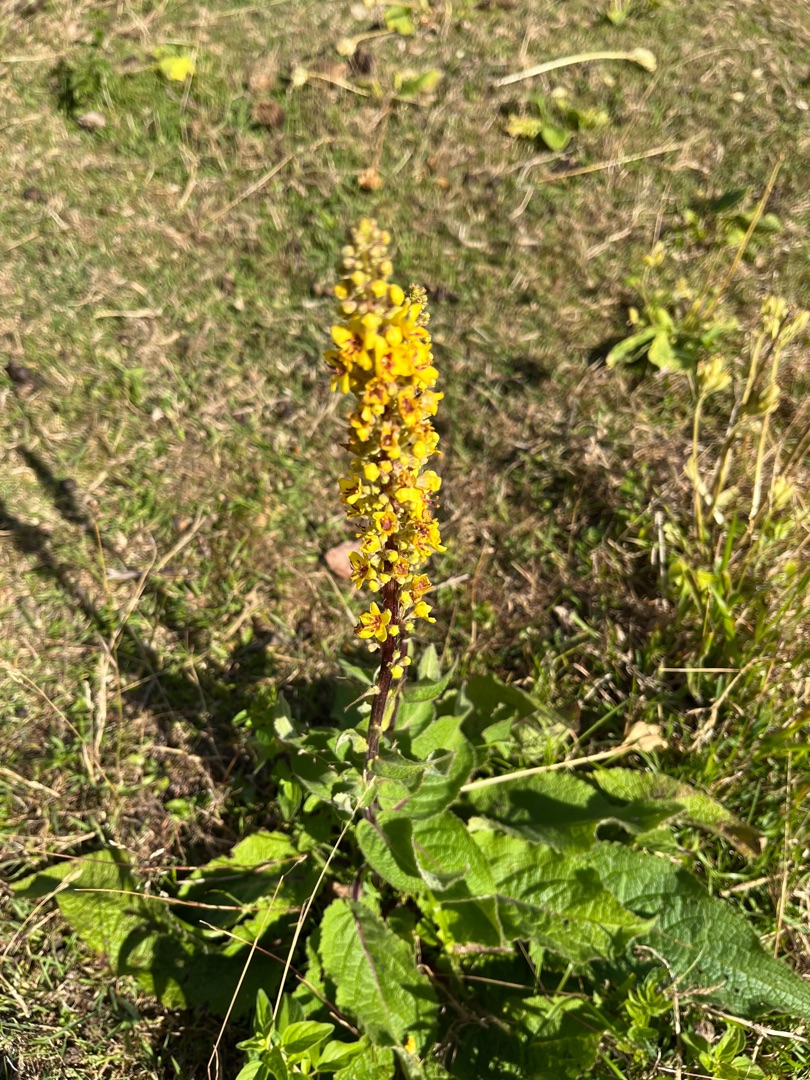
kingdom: Plantae
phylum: Tracheophyta
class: Magnoliopsida
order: Lamiales
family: Scrophulariaceae
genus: Verbascum
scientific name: Verbascum nigrum
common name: Mørk kongelys
